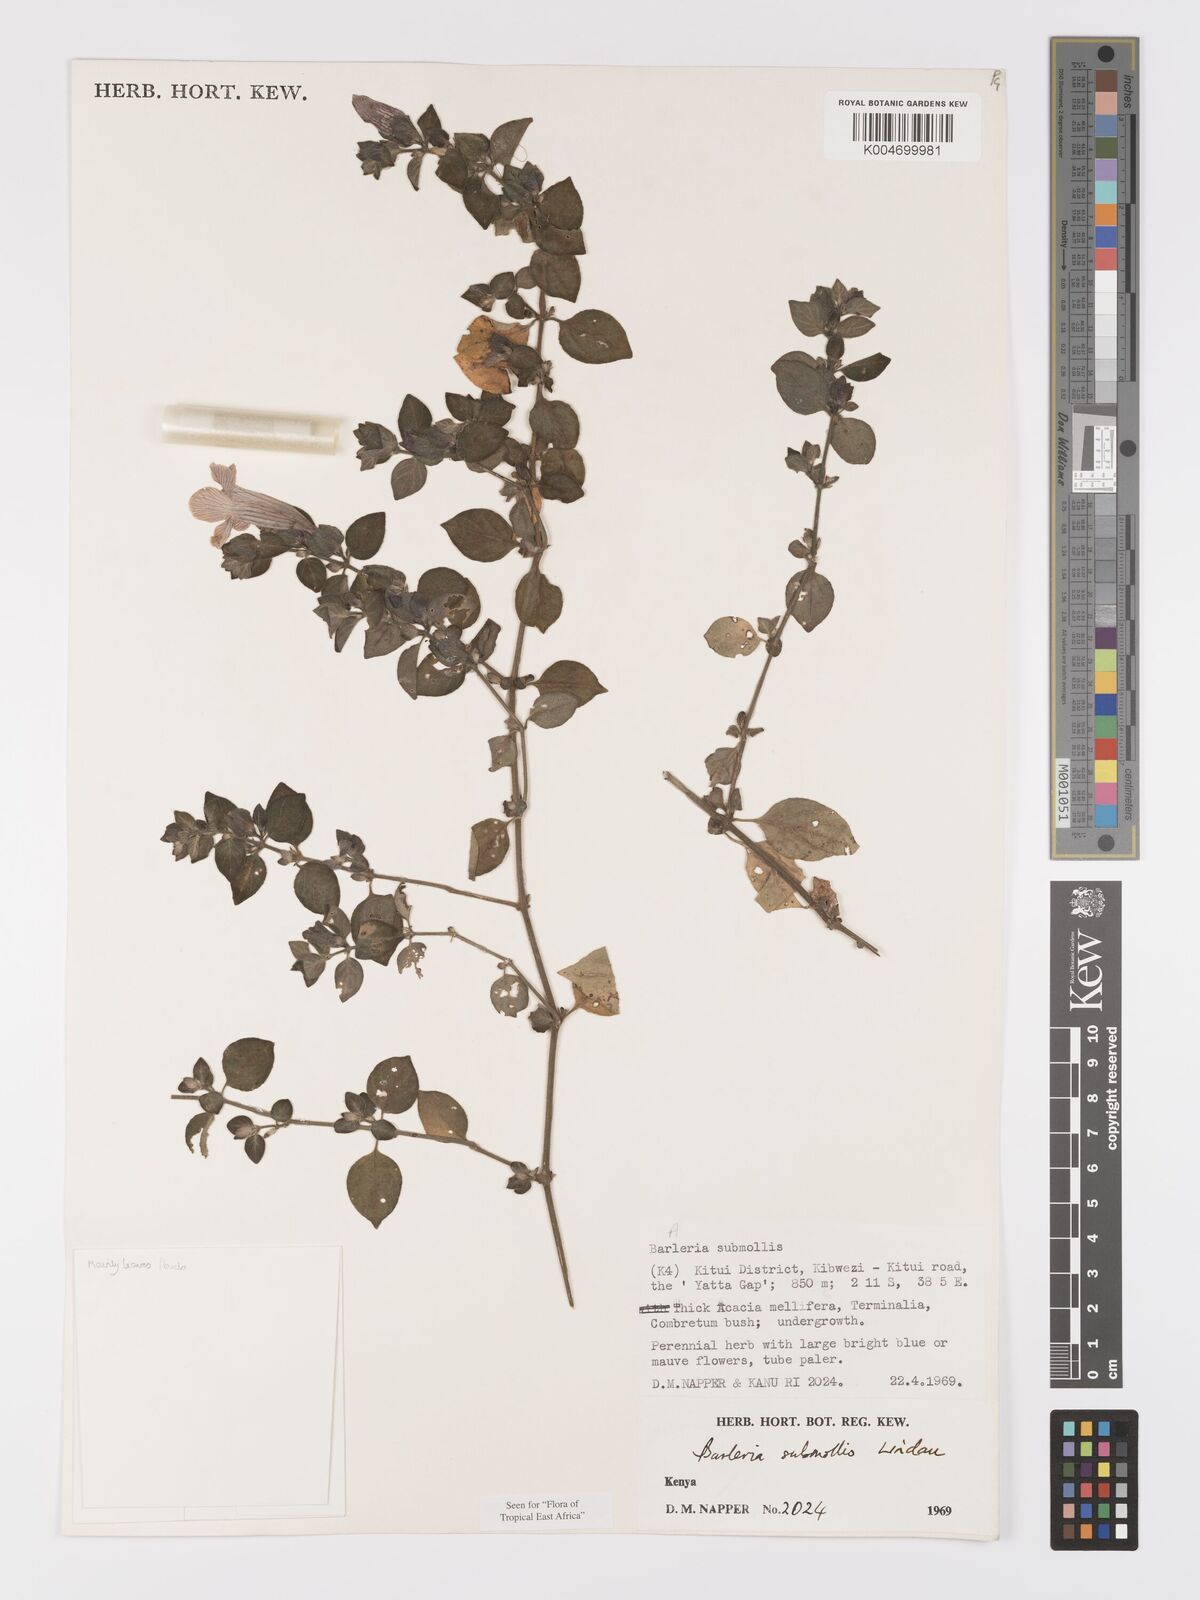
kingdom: Plantae
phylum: Tracheophyta
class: Magnoliopsida
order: Lamiales
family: Acanthaceae
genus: Barleria
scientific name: Barleria submollis
